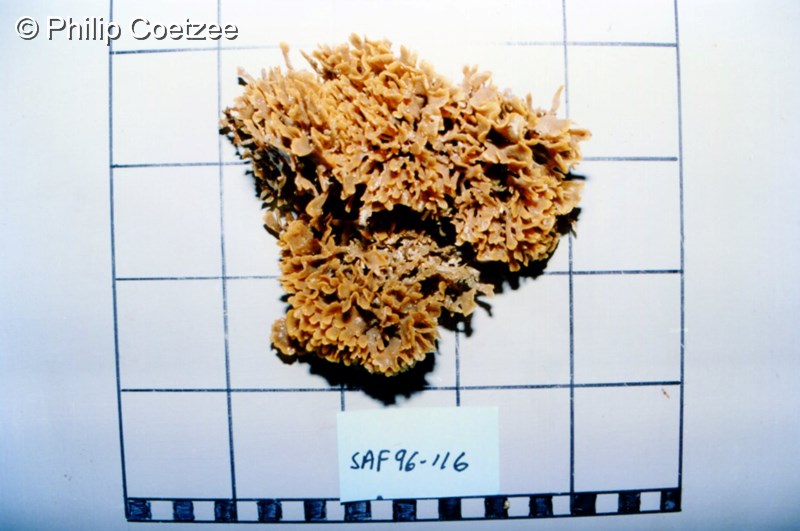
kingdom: Animalia
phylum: Bryozoa
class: Gymnolaemata
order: Cheilostomatida
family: Microporellidae
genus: Flustramorpha
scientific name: Flustramorpha flabellaris
